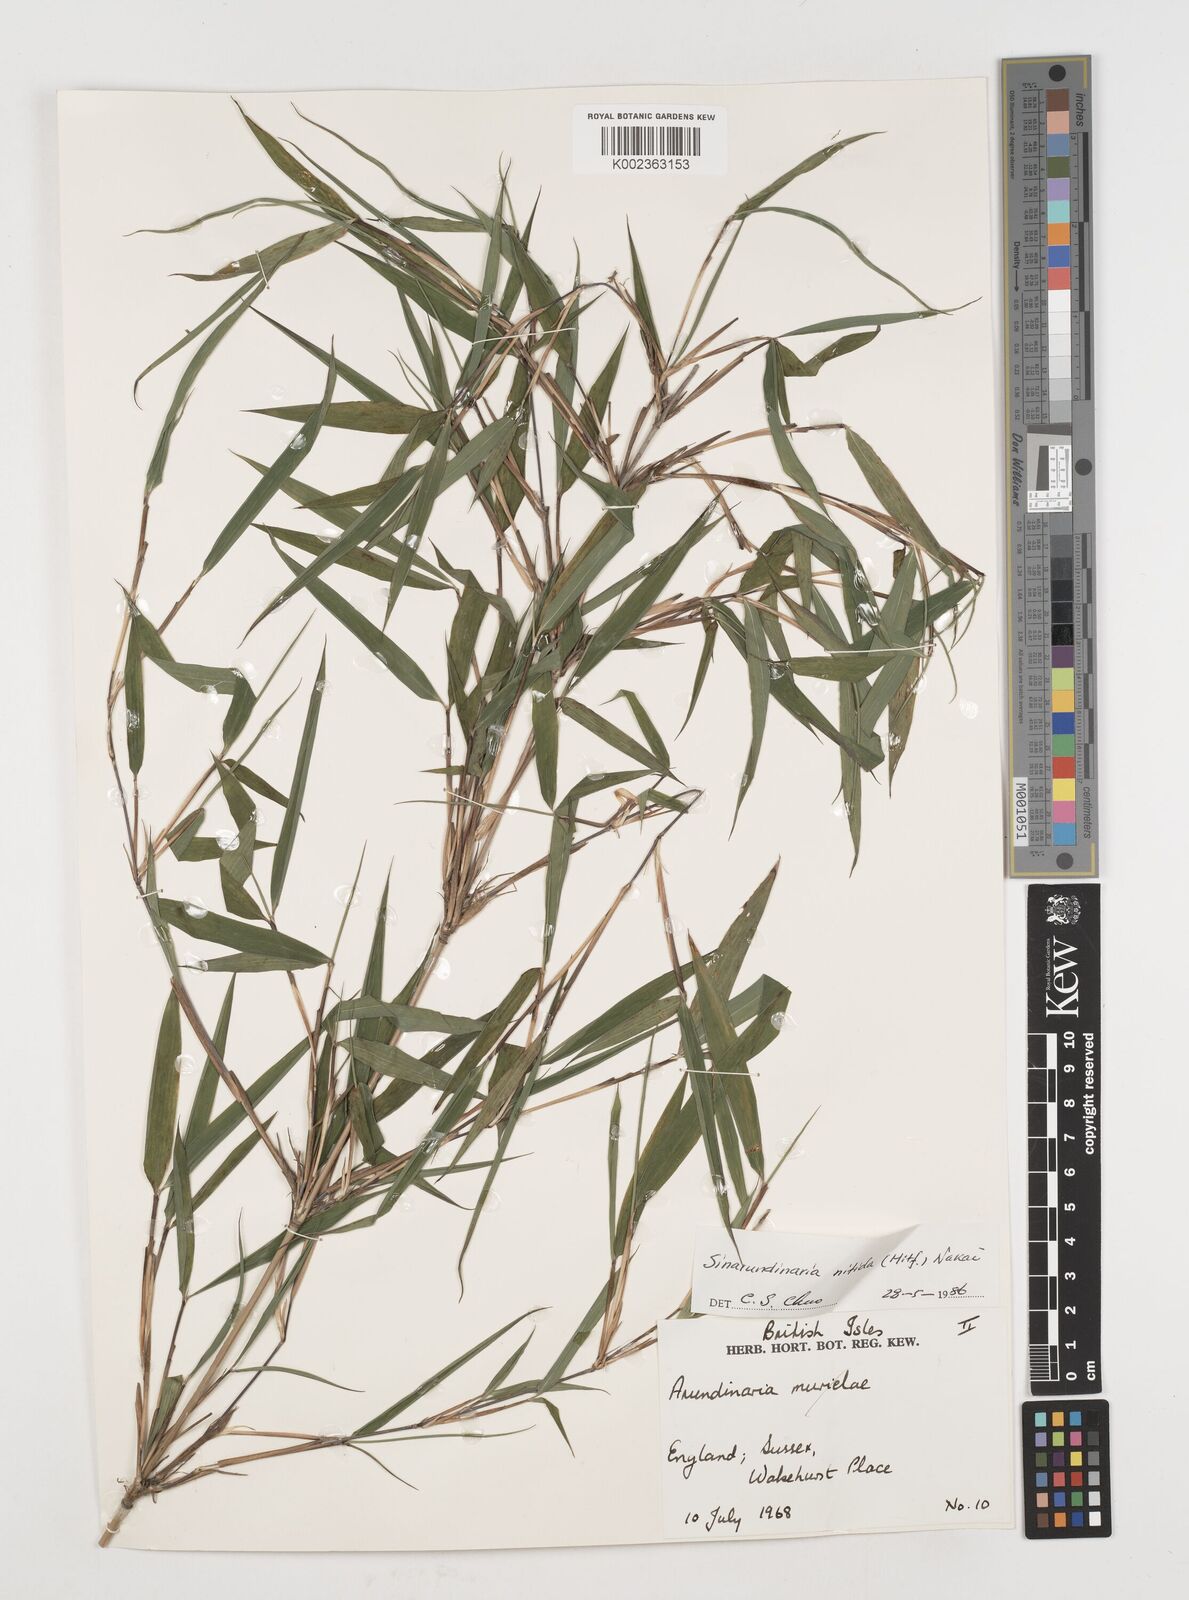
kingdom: Plantae
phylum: Tracheophyta
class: Liliopsida
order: Poales
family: Poaceae
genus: Fargesia
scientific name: Fargesia nitida ex
